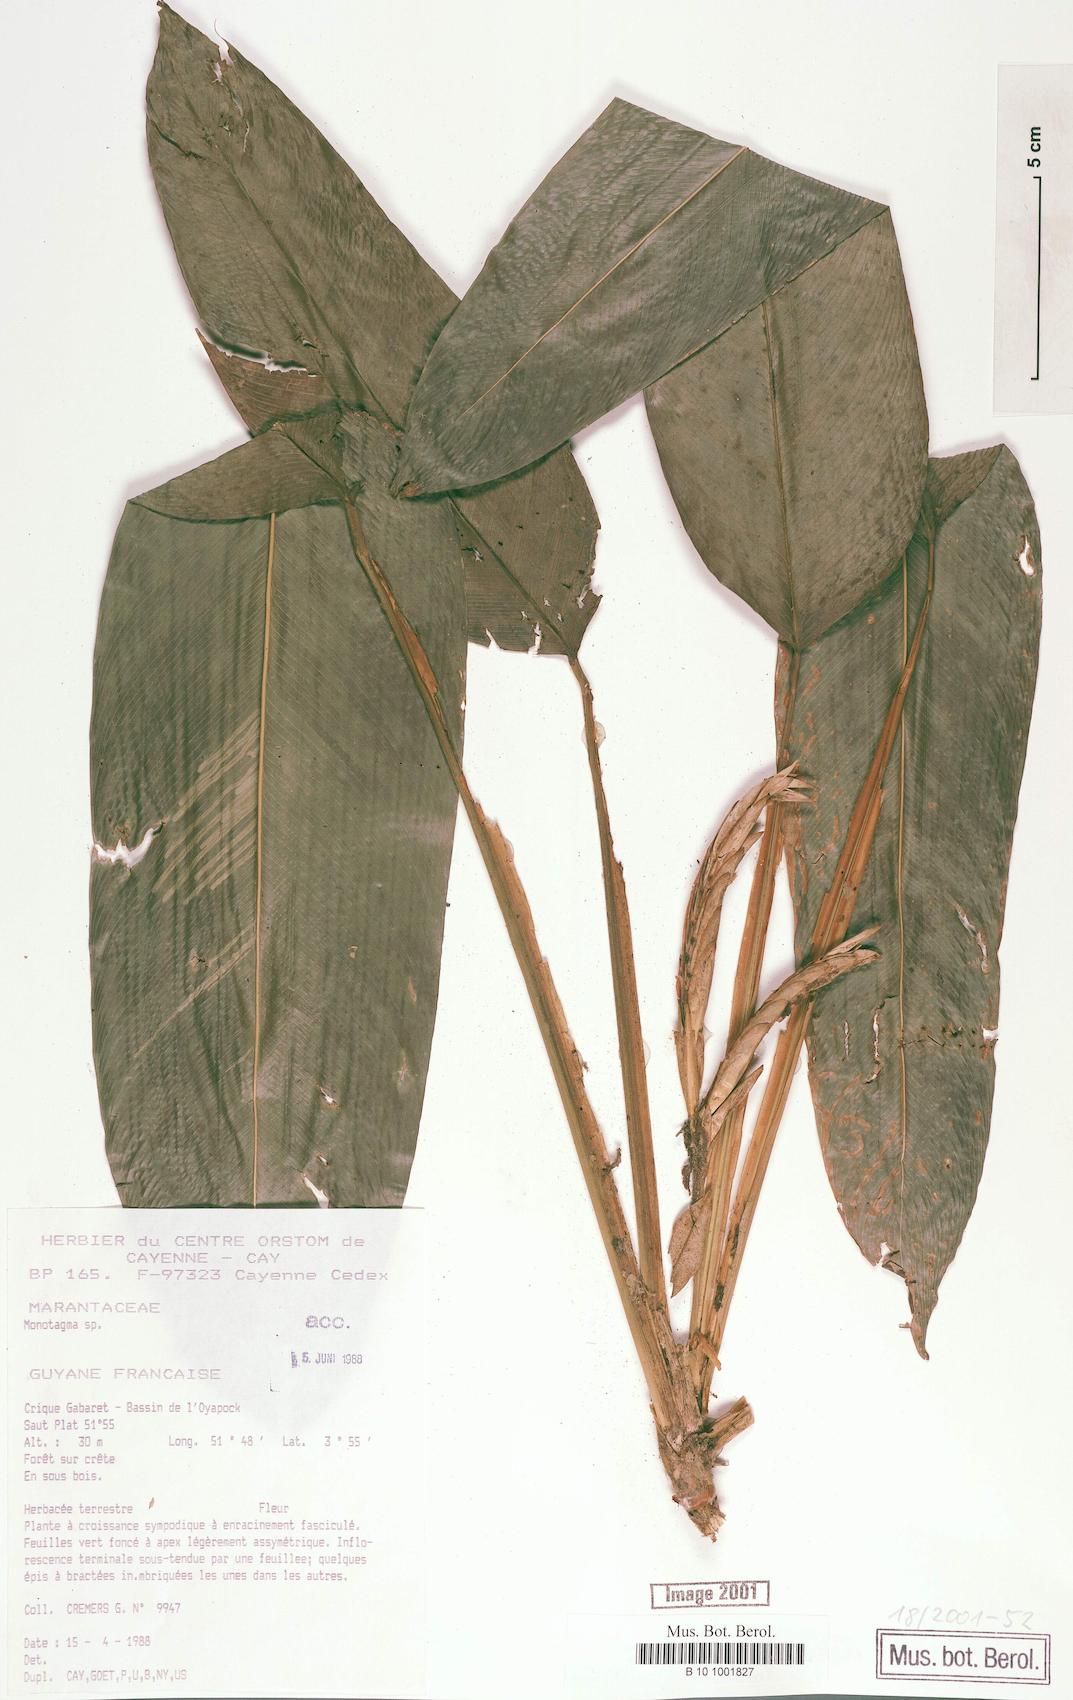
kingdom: Plantae
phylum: Tracheophyta
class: Liliopsida
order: Zingiberales
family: Marantaceae
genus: Monotagma
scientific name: Monotagma
